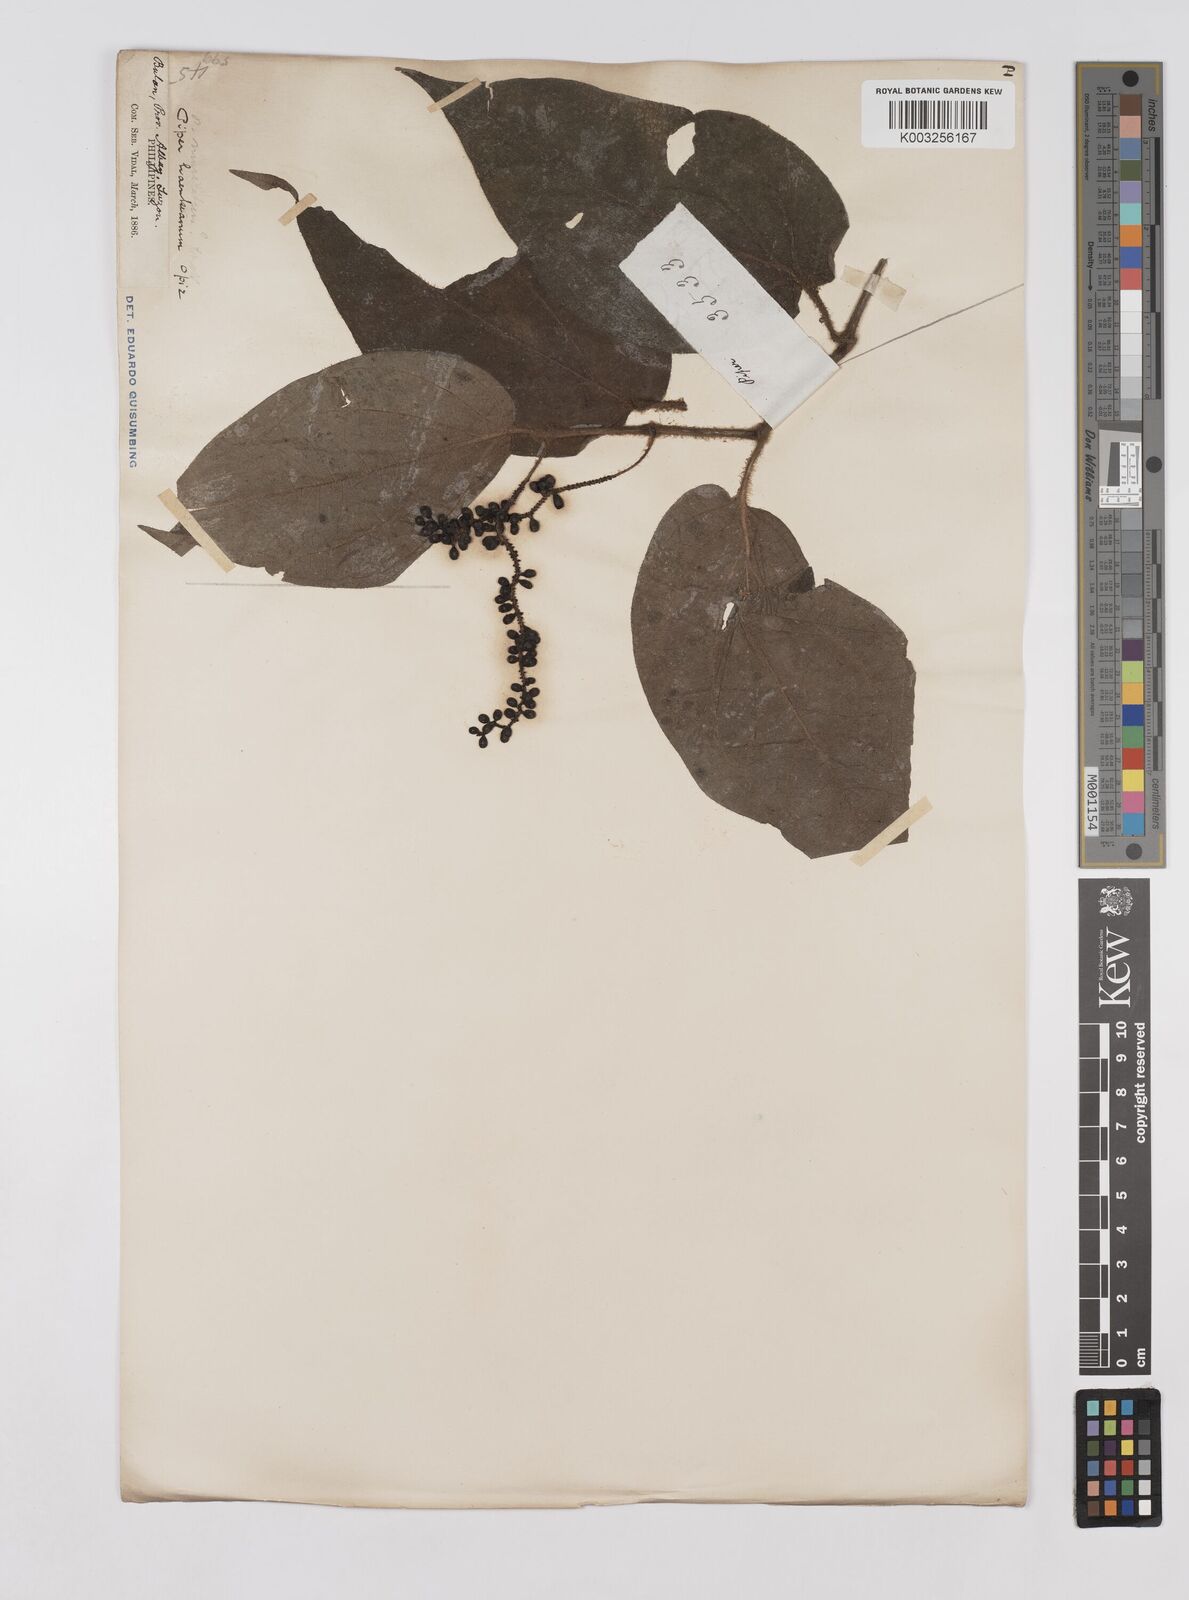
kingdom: Plantae
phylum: Tracheophyta
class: Magnoliopsida
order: Piperales
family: Piperaceae
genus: Piper
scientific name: Piper lanatum
